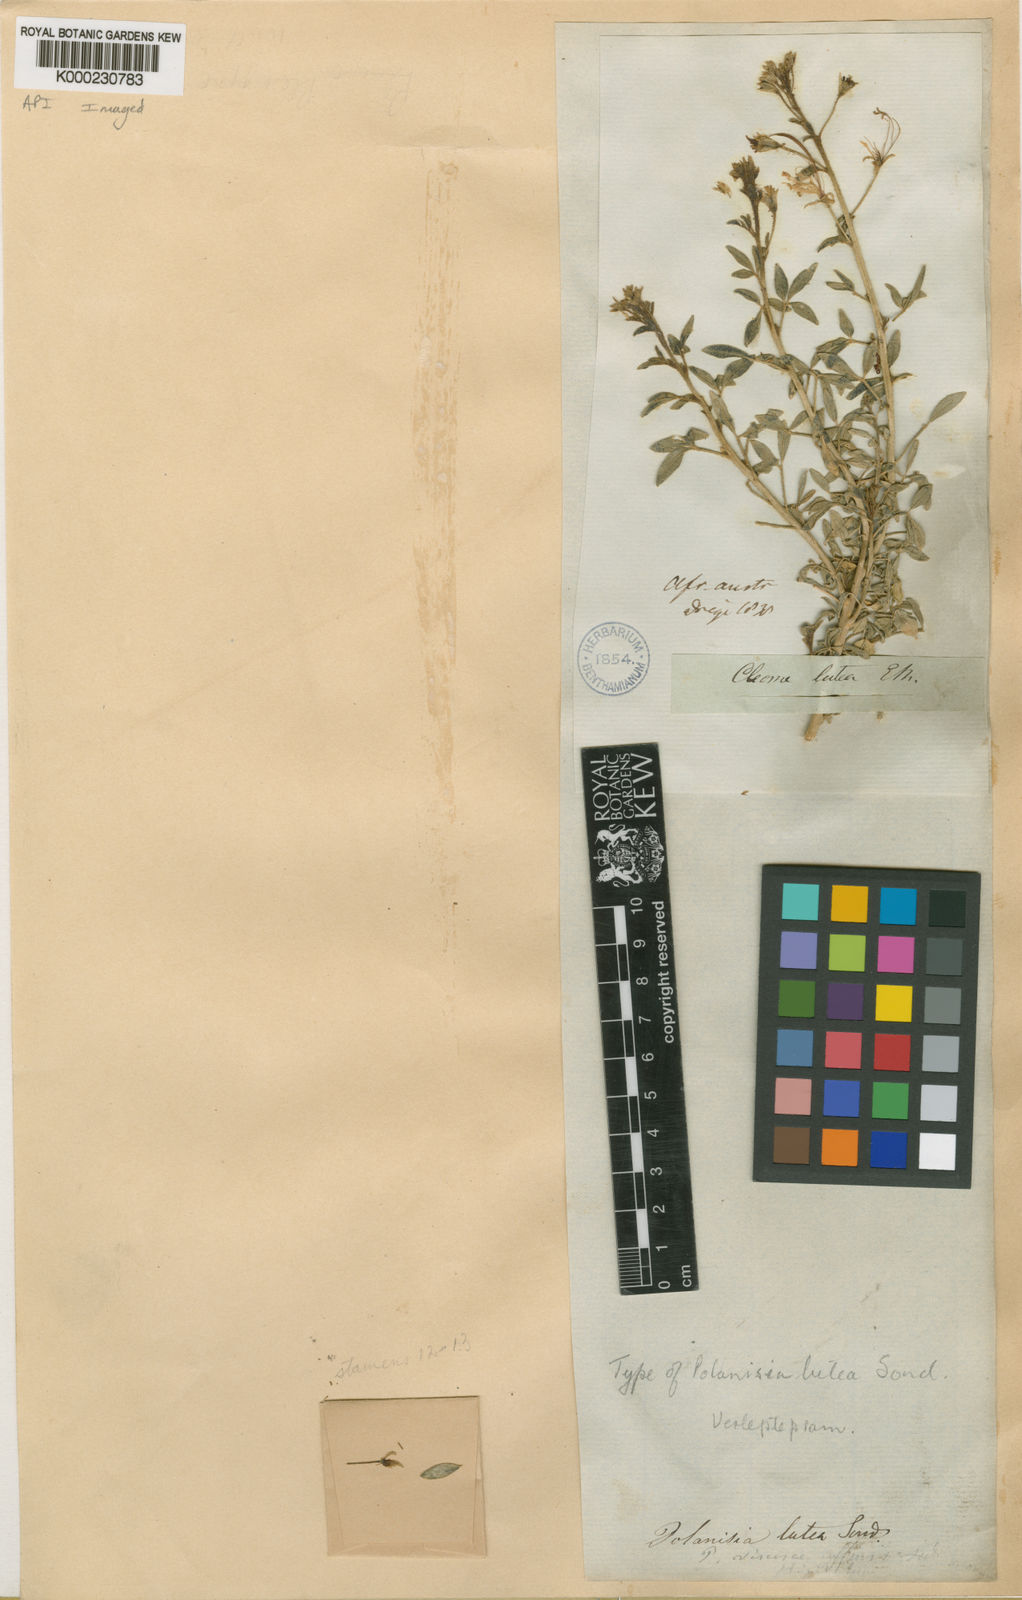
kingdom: Plantae
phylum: Tracheophyta
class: Magnoliopsida
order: Brassicales
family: Cleomaceae
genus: Kersia
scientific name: Kersia foliosa
